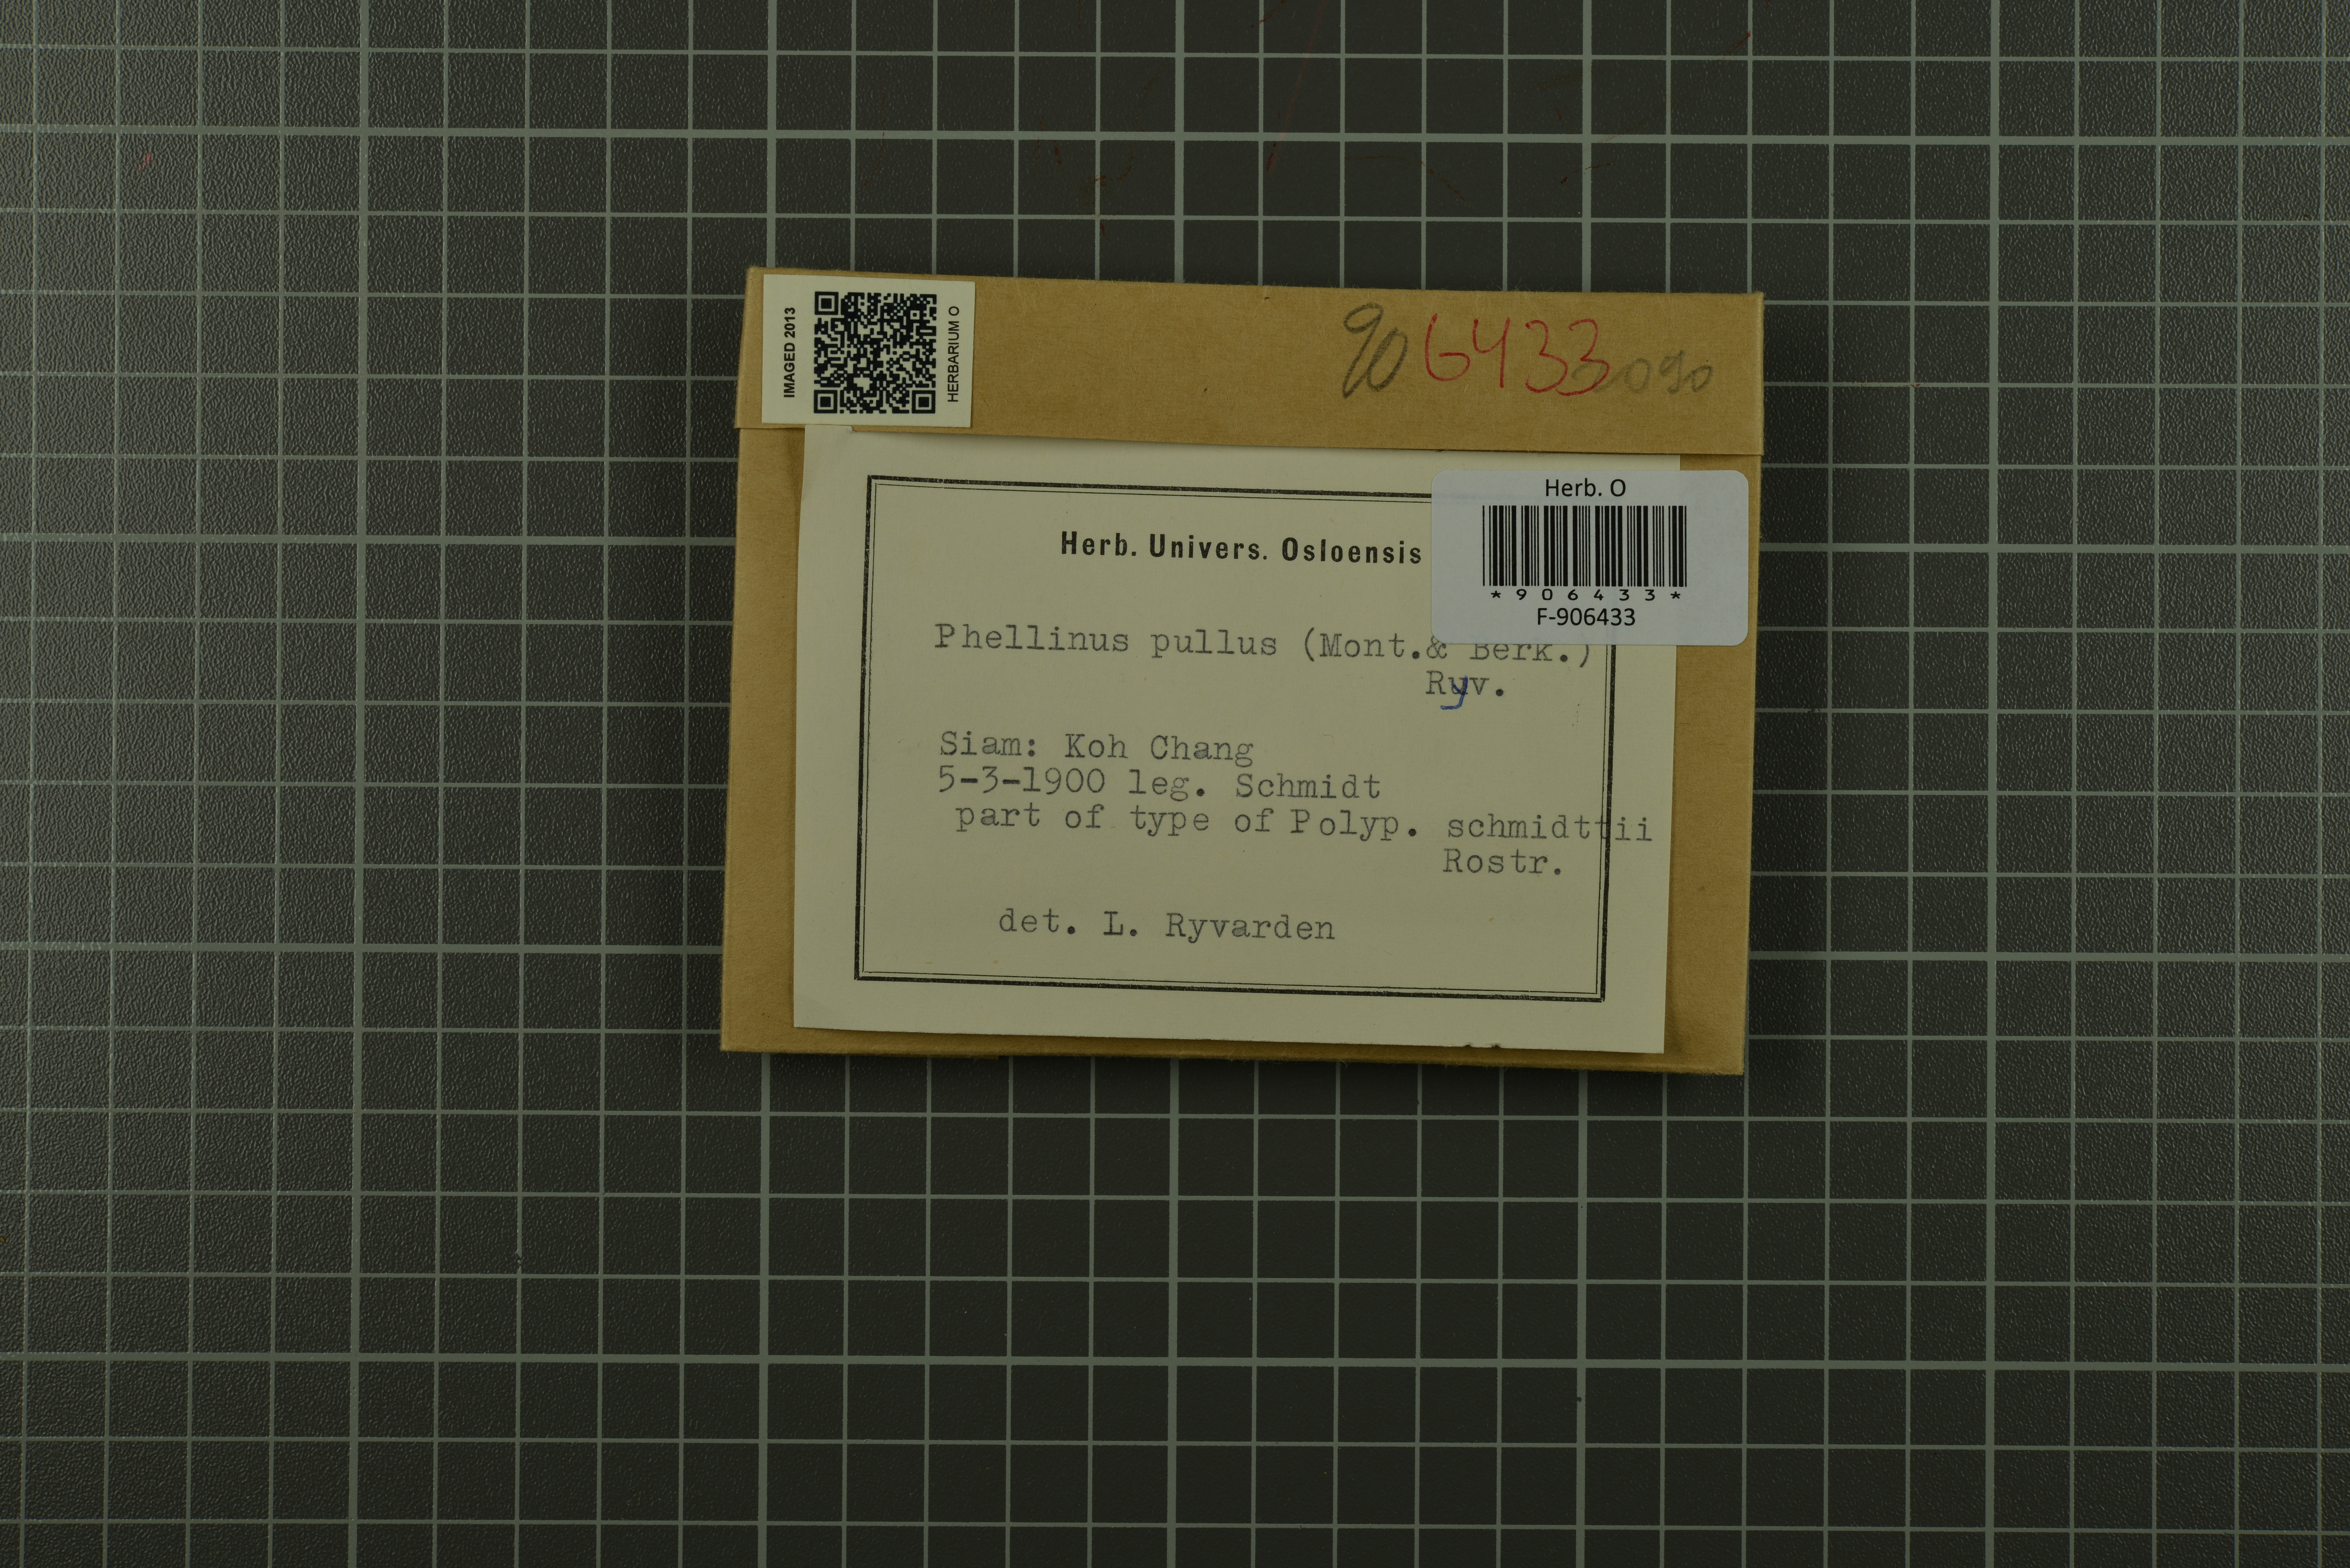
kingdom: Fungi
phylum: Basidiomycota
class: Agaricomycetes
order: Hymenochaetales
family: Hymenochaetaceae
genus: Phylloporia
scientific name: Phylloporia pulla
